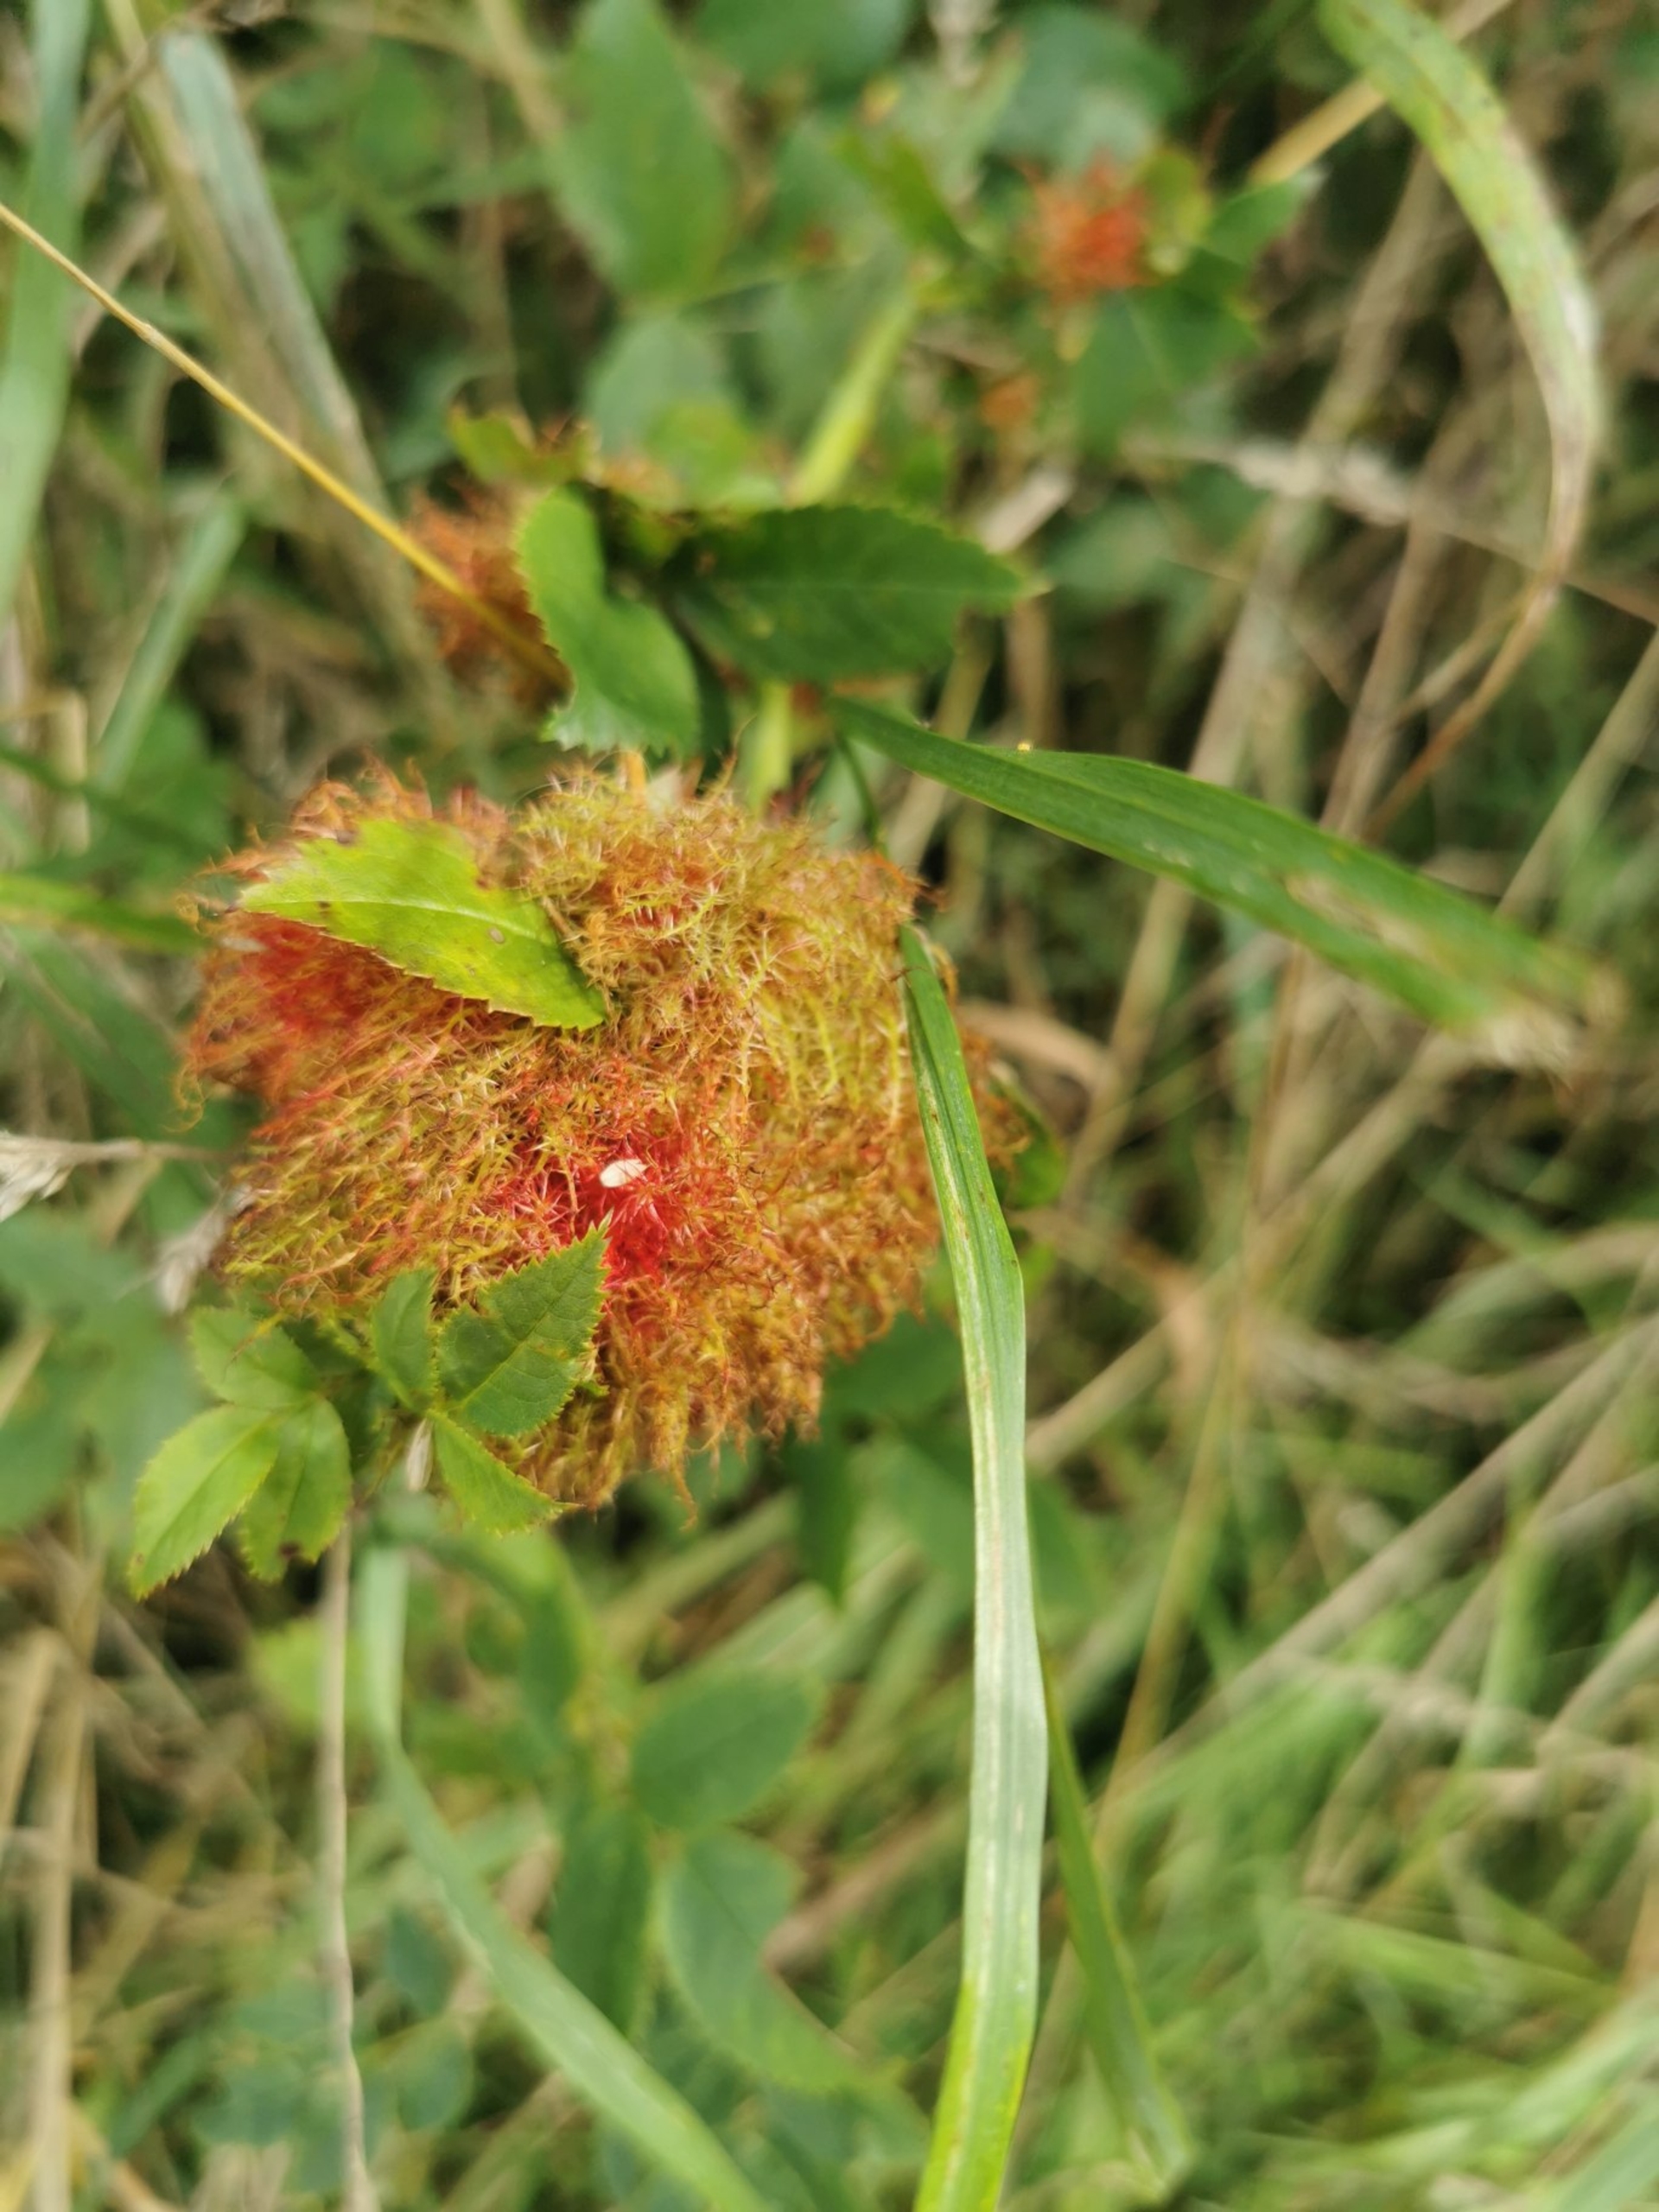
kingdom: Animalia
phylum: Arthropoda
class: Insecta
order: Hymenoptera
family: Cynipidae
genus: Diplolepis
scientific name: Diplolepis rosae
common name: Bedeguargalhveps
